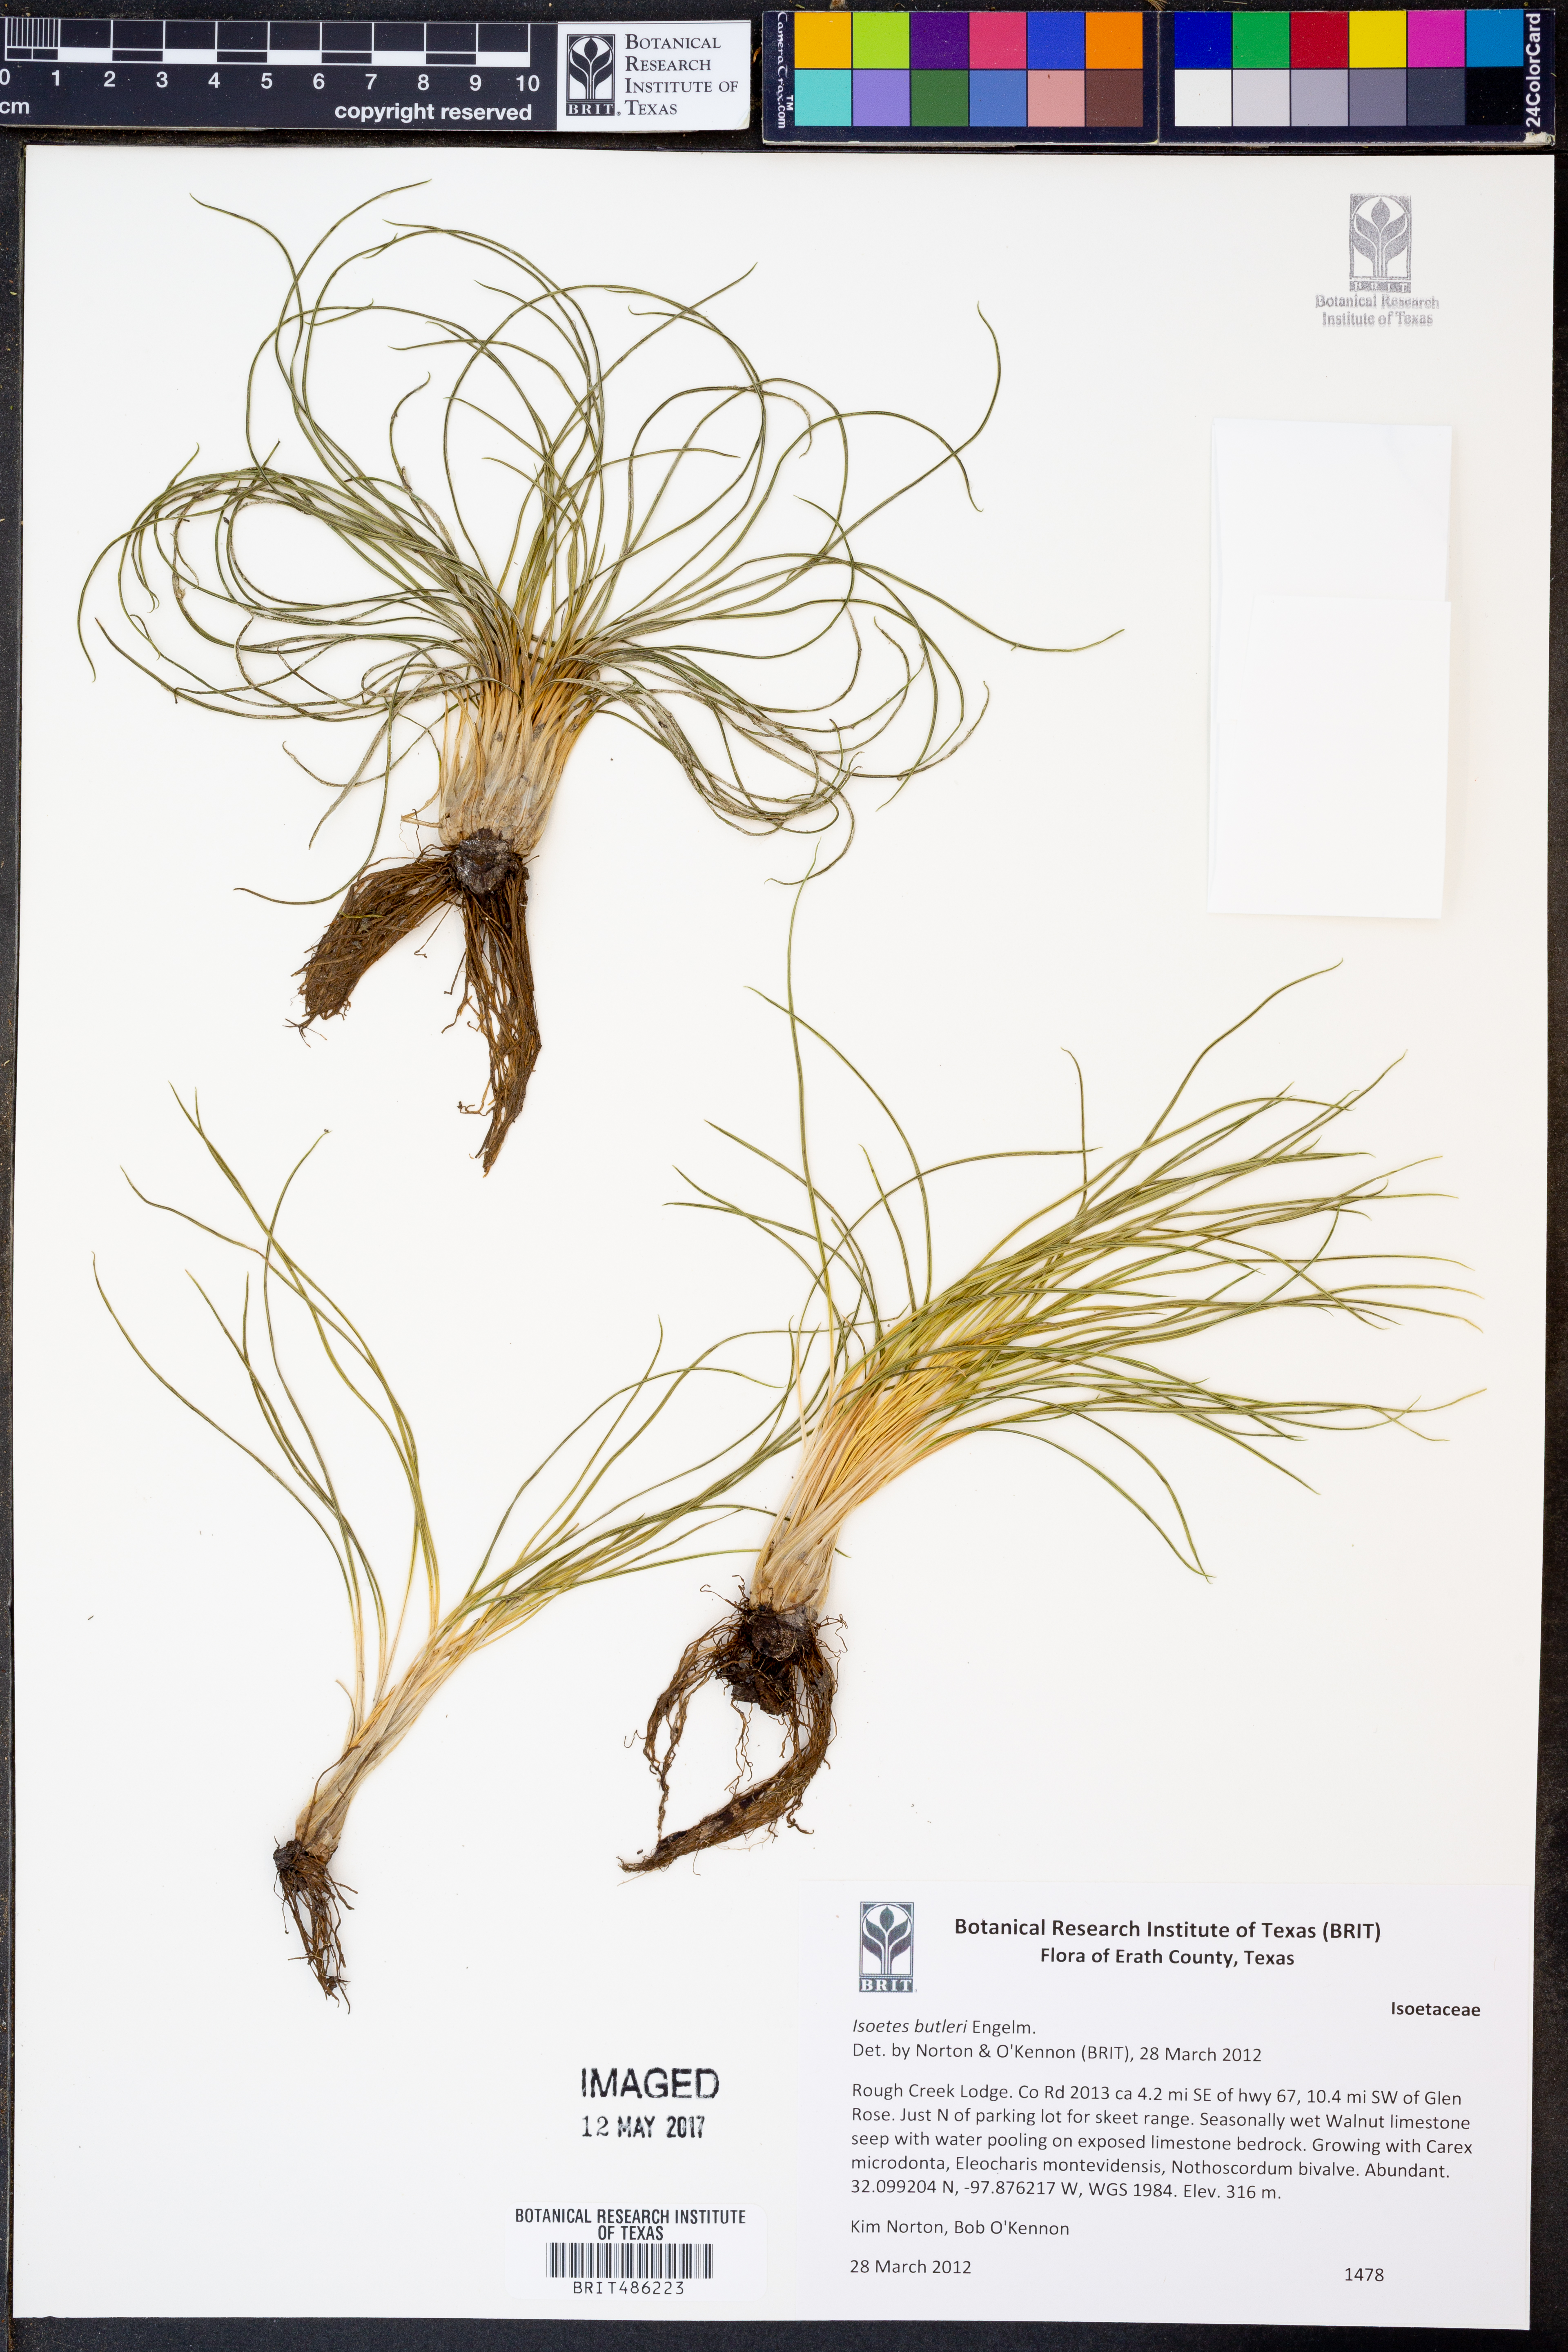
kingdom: Plantae
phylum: Tracheophyta
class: Lycopodiopsida
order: Isoetales
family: Isoetaceae
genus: Isoetes
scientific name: Isoetes butleri
